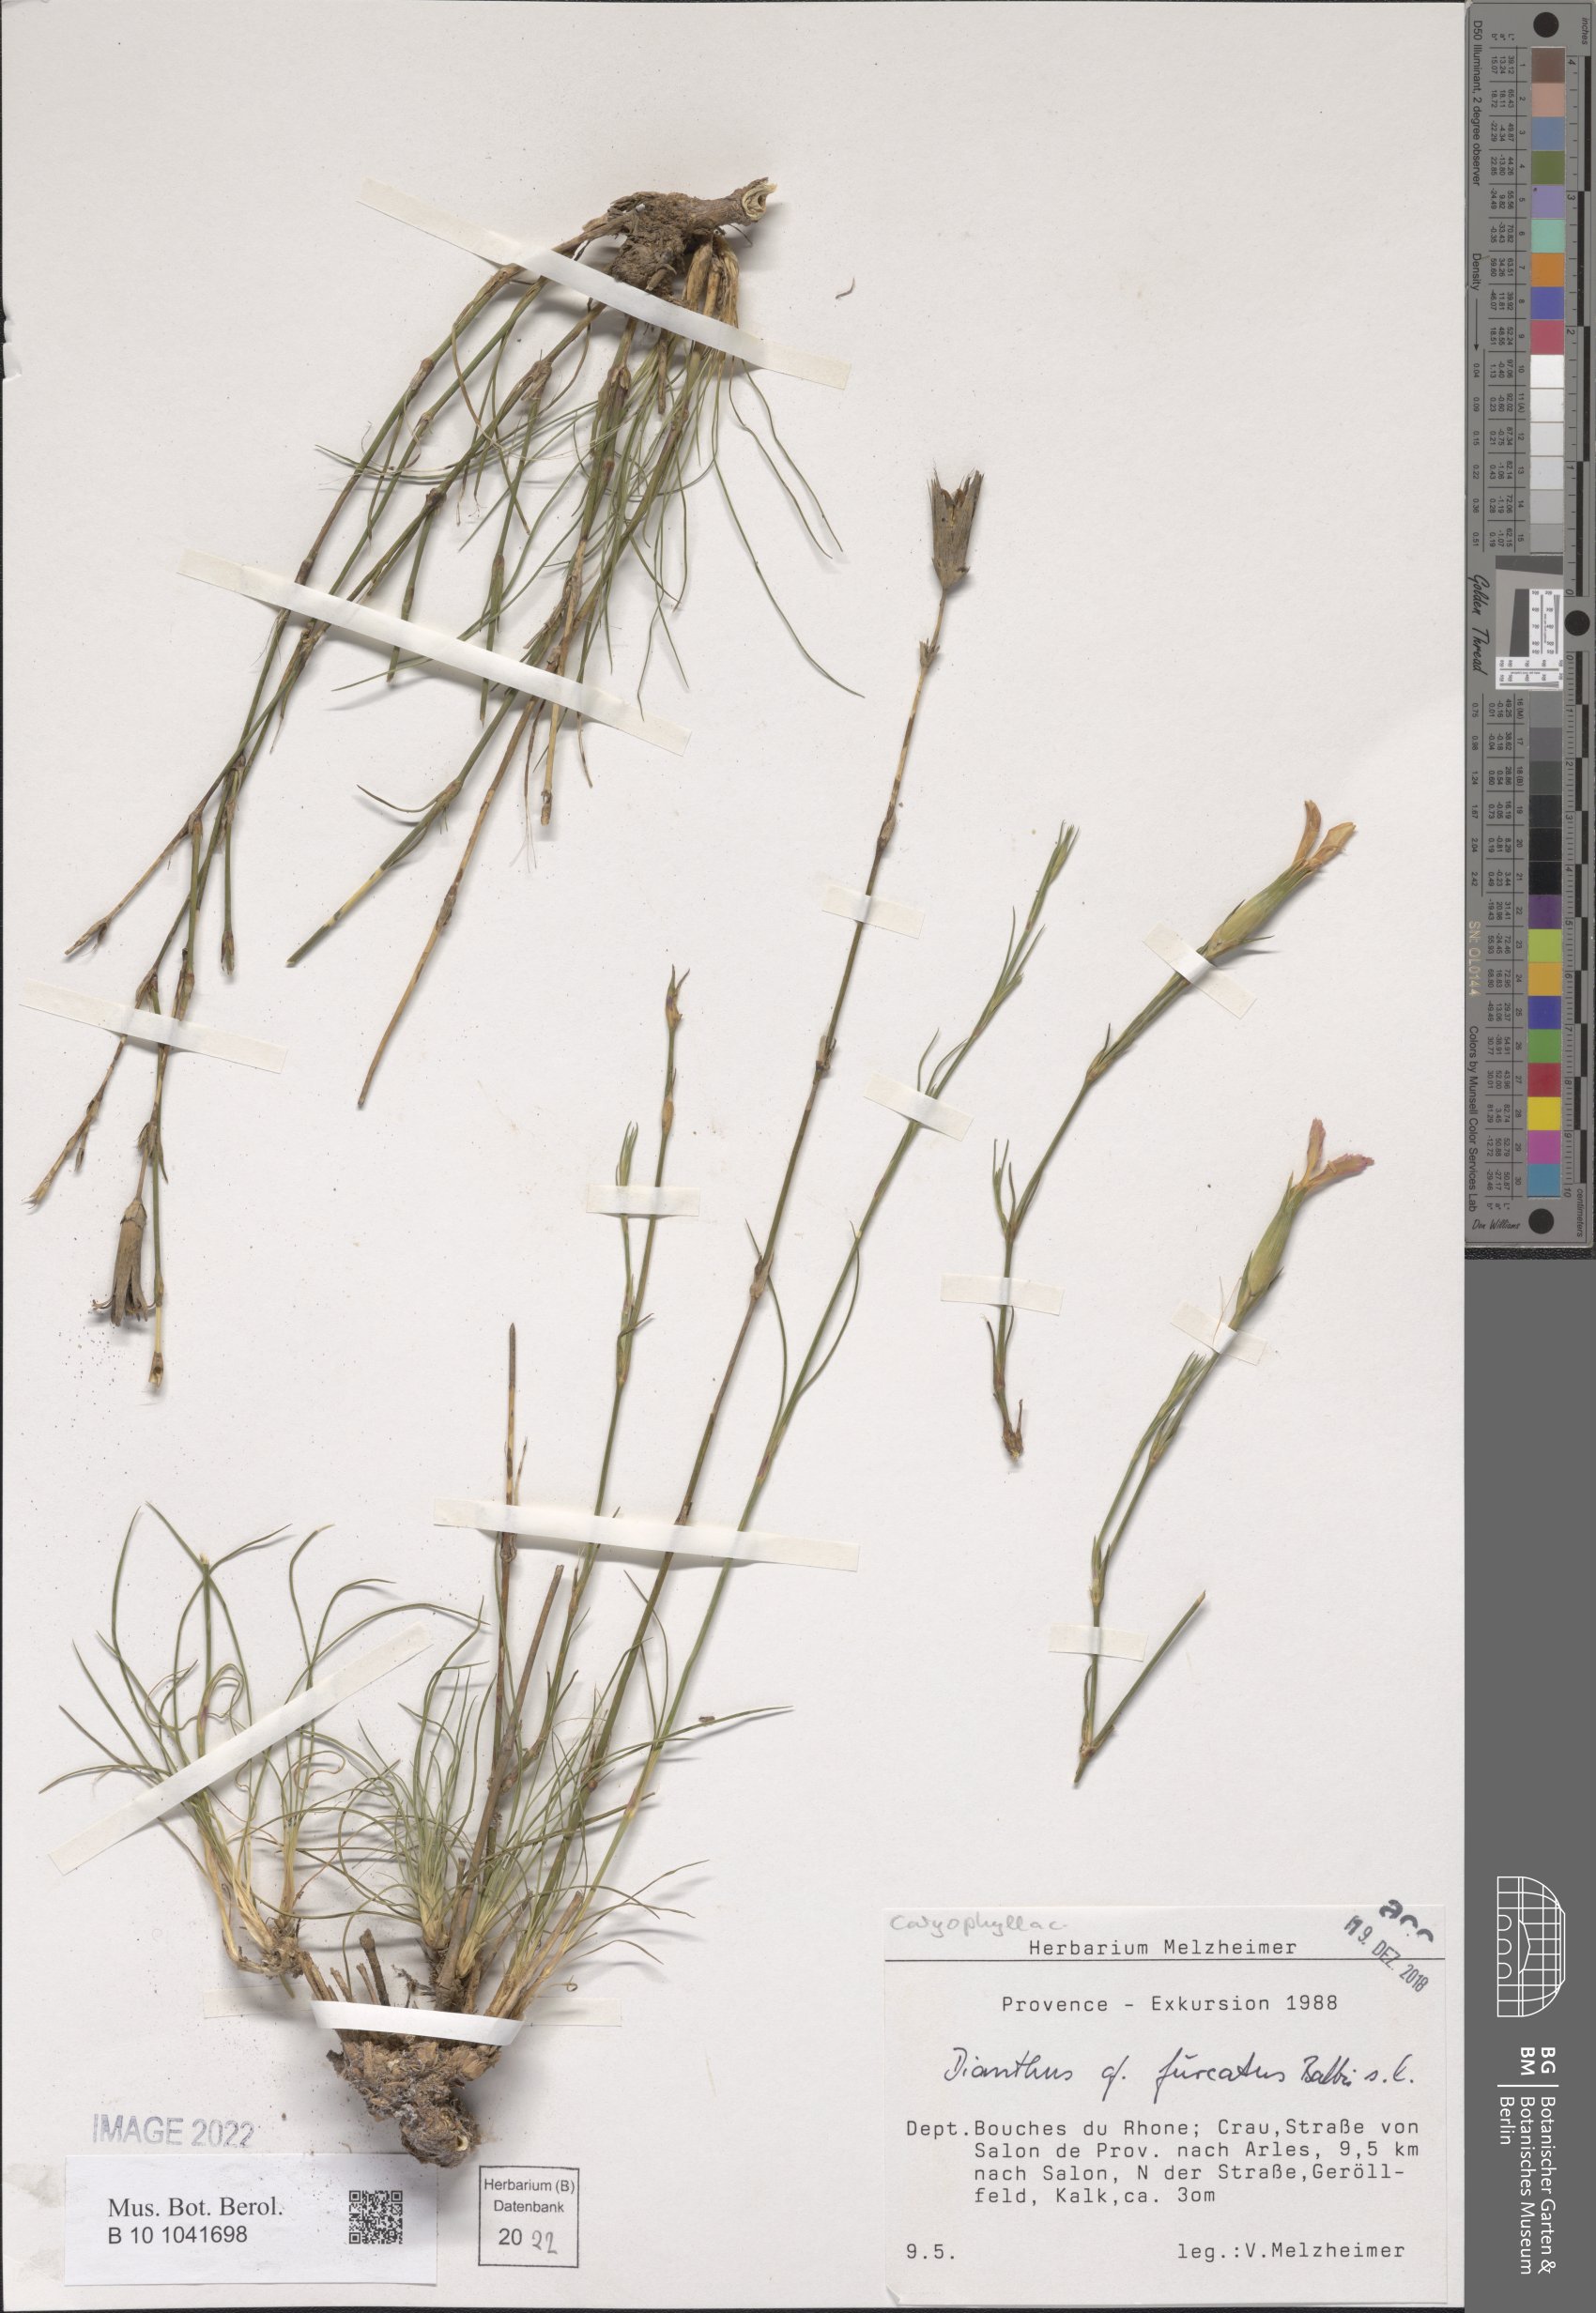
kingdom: Plantae
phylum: Tracheophyta
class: Magnoliopsida
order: Caryophyllales
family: Caryophyllaceae
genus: Dianthus
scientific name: Dianthus furcatus
